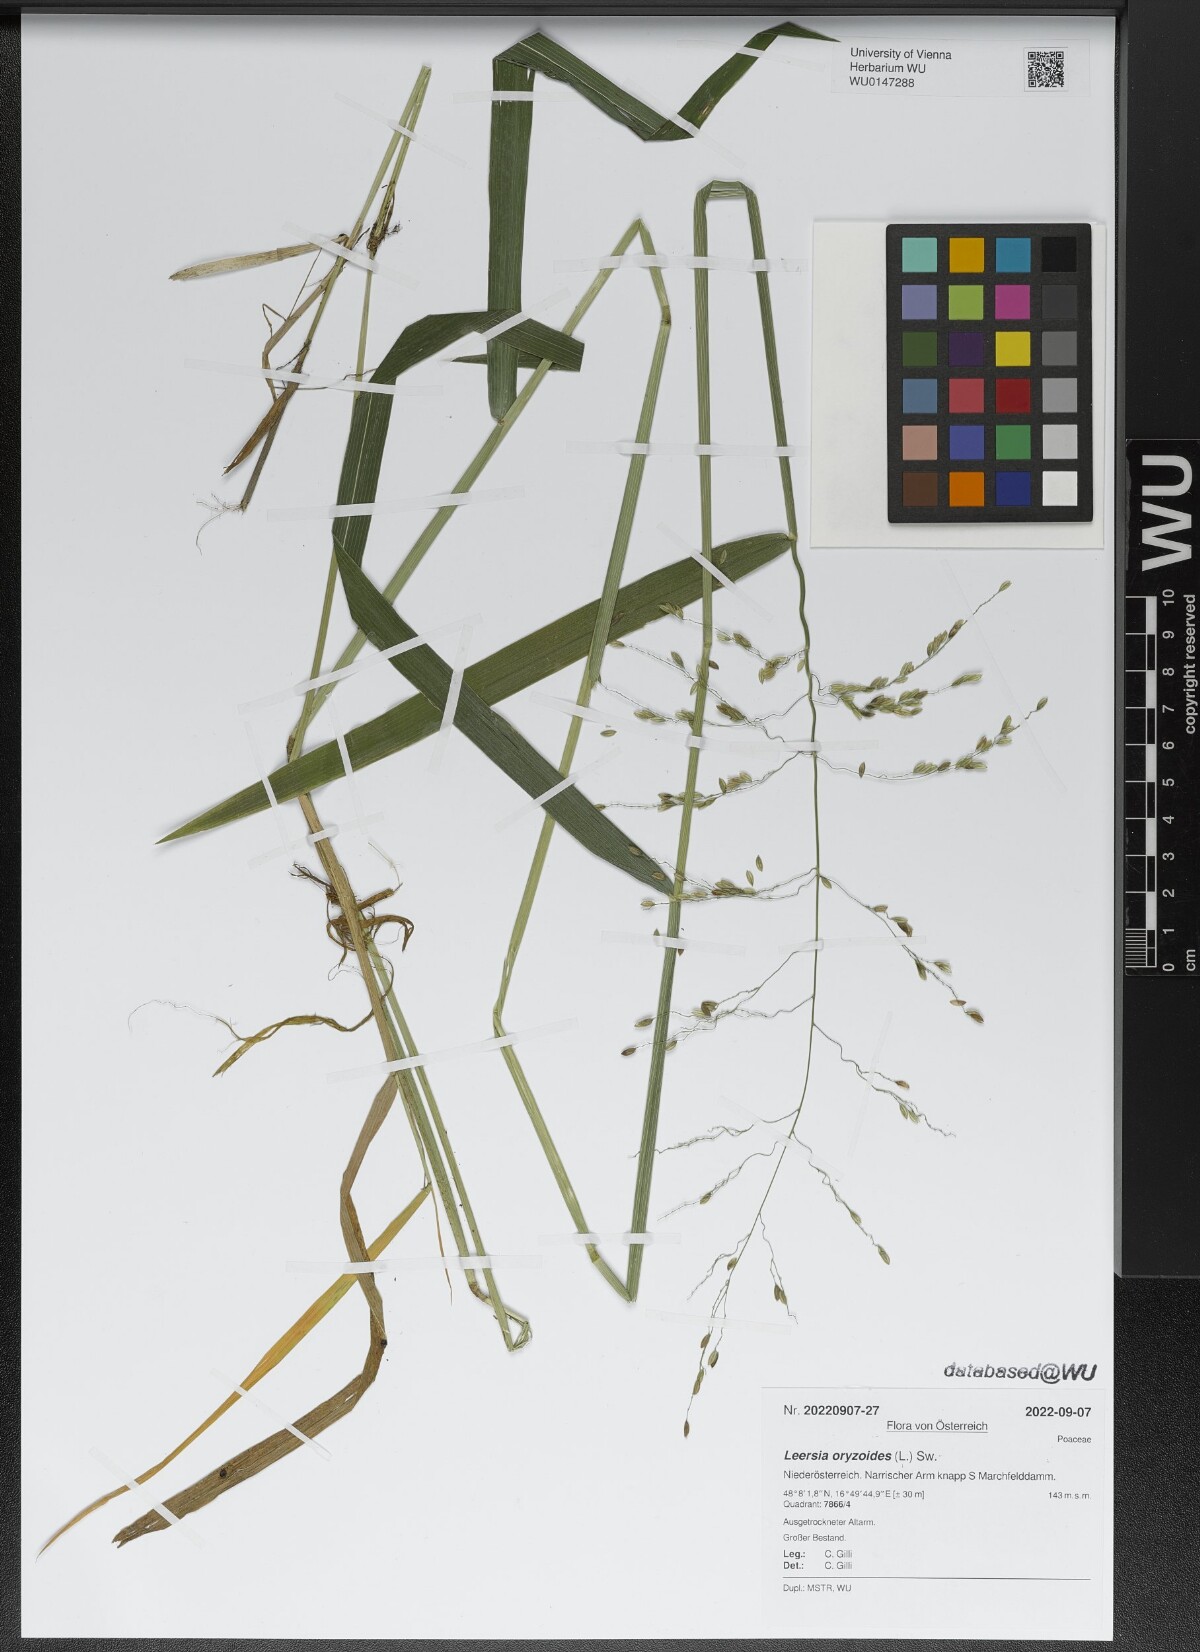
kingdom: Plantae
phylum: Tracheophyta
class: Liliopsida
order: Poales
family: Poaceae
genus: Leersia
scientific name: Leersia oryzoides
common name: Cut-grass
